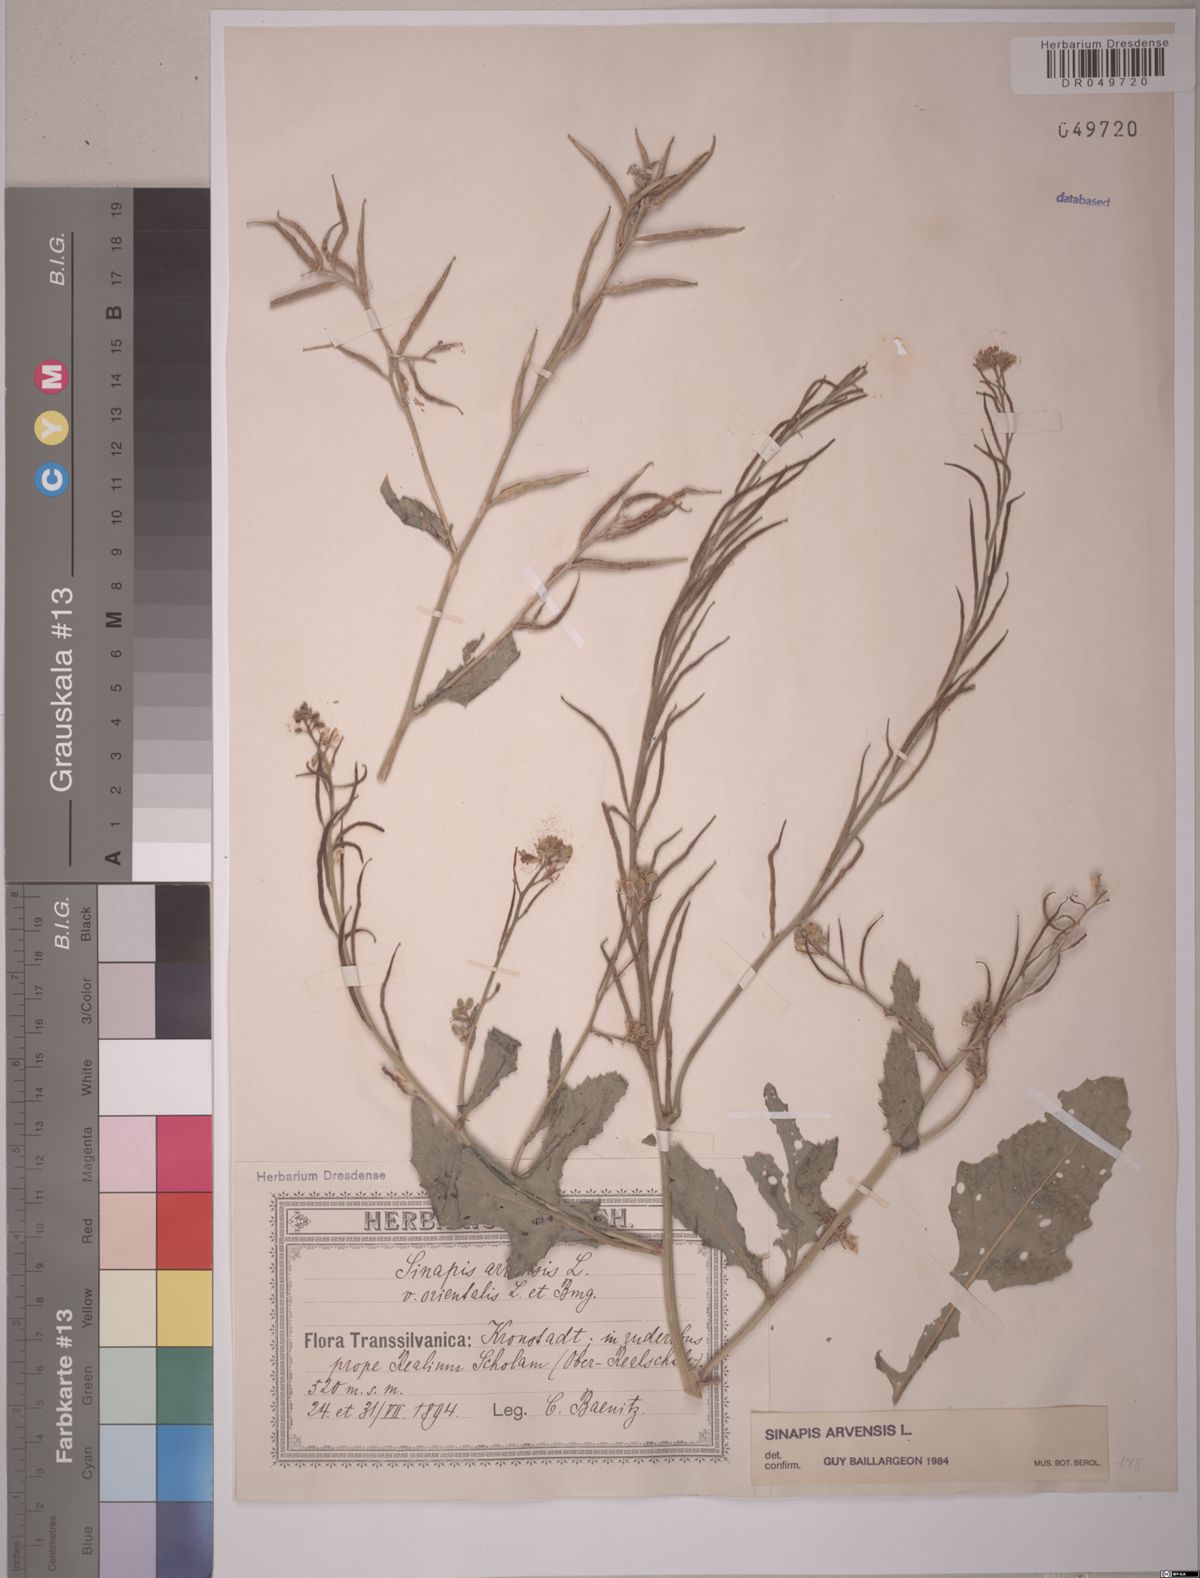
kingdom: Plantae
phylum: Tracheophyta
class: Magnoliopsida
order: Brassicales
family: Brassicaceae
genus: Sinapis
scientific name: Sinapis arvensis
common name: Charlock
